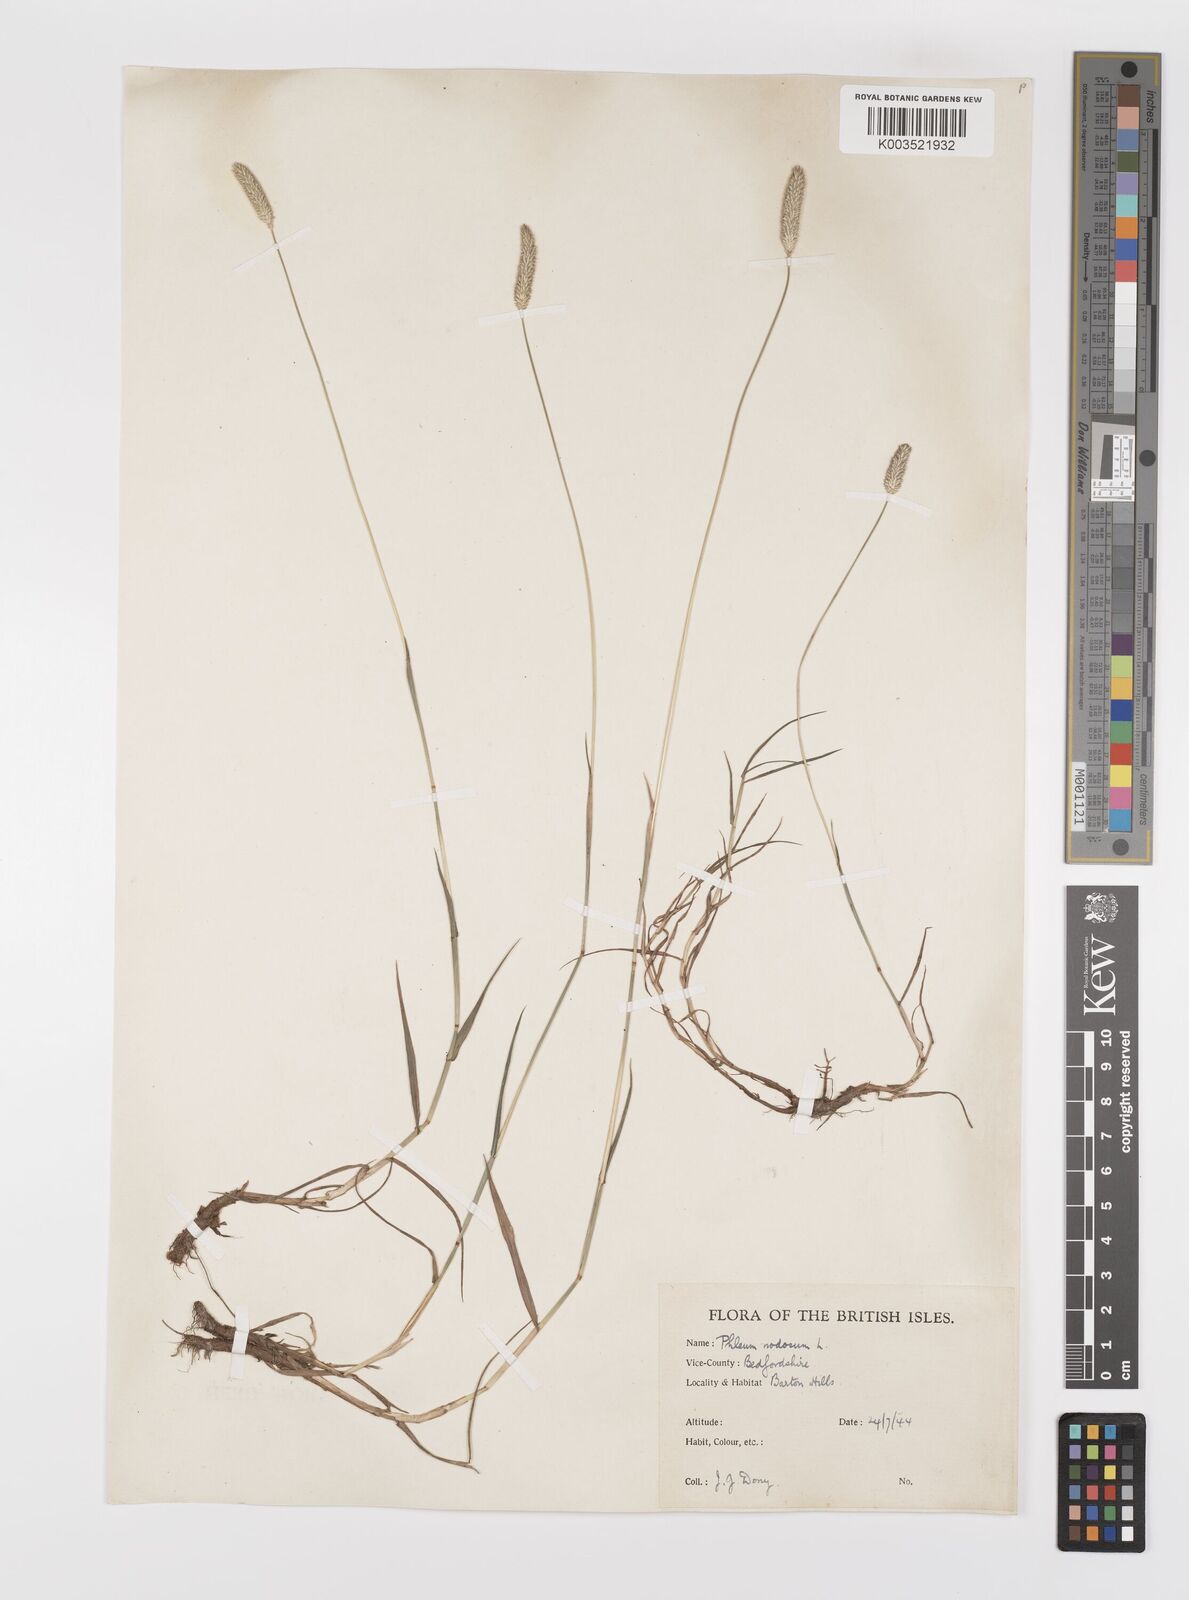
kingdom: Plantae
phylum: Tracheophyta
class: Liliopsida
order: Poales
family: Poaceae
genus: Phleum
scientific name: Phleum bertolonii
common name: Smaller cat's-tail
